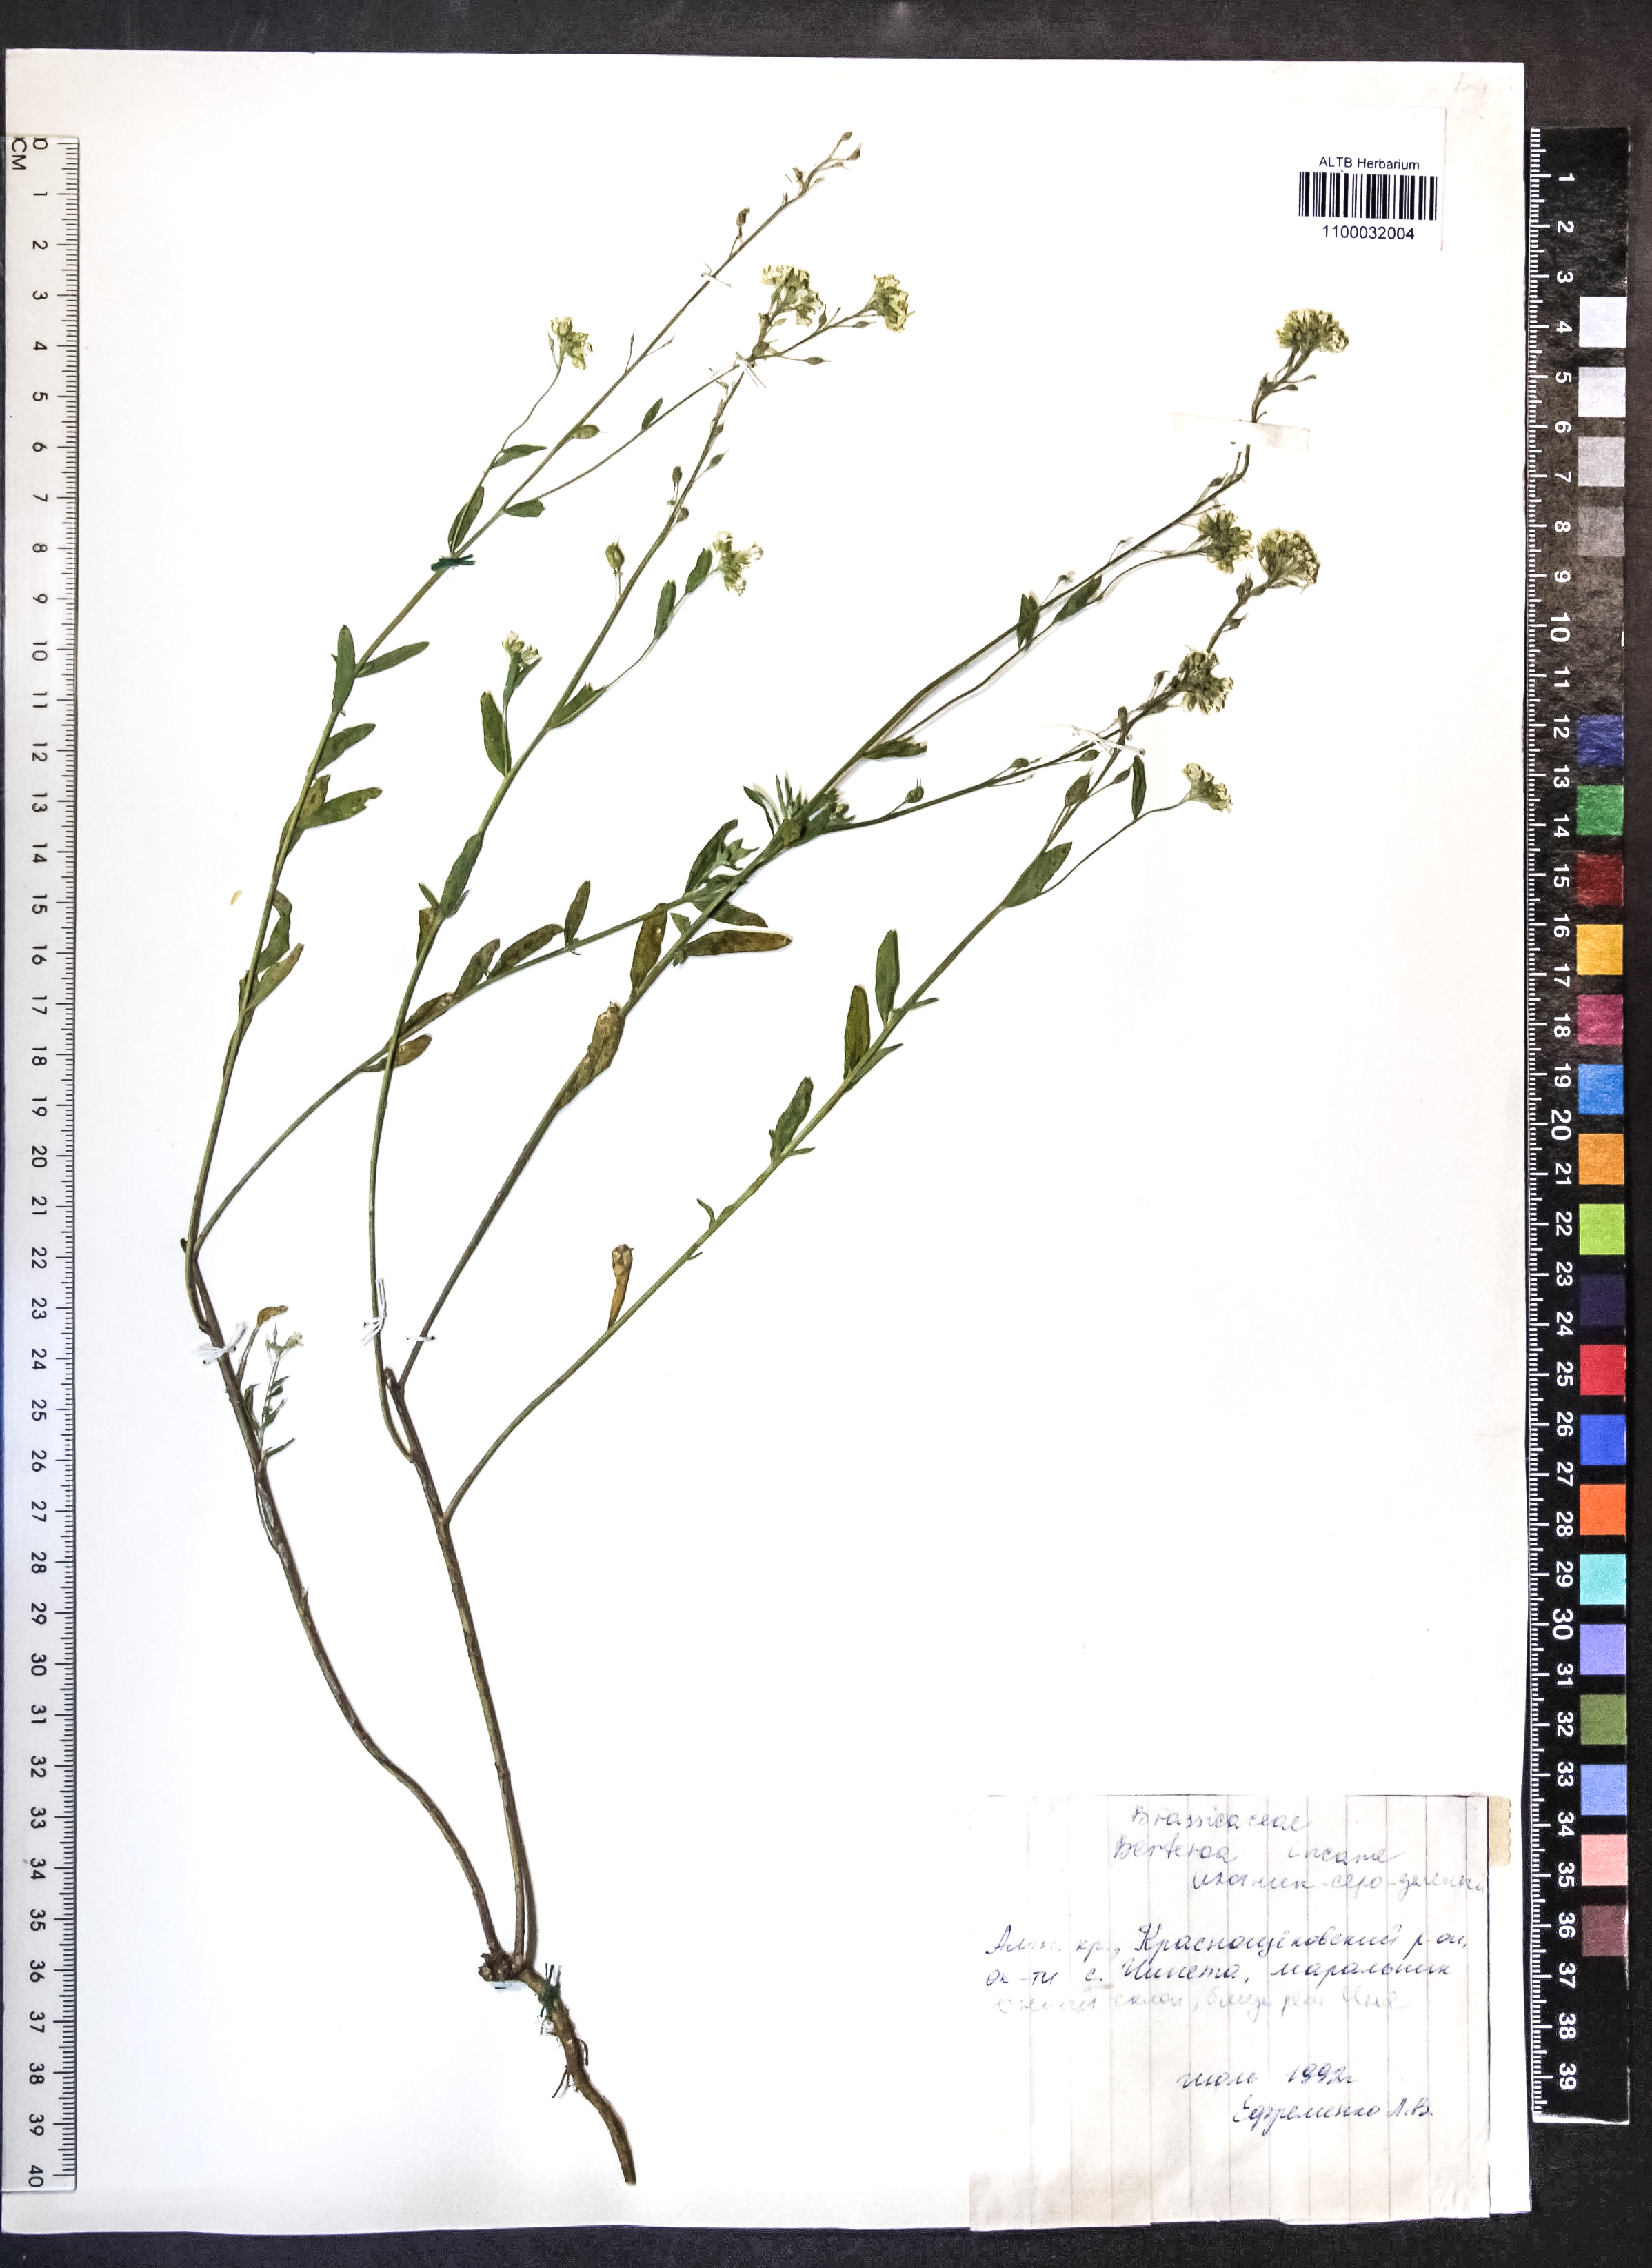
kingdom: Plantae
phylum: Tracheophyta
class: Magnoliopsida
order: Brassicales
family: Brassicaceae
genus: Berteroa
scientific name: Berteroa incana
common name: Hoary alison
